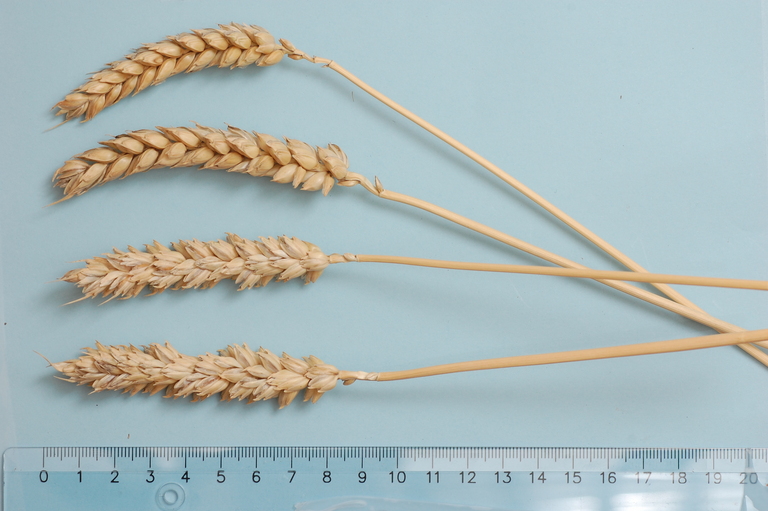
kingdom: Plantae
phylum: Tracheophyta
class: Liliopsida
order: Poales
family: Poaceae
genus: Triticum
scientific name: Triticum aestivum
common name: Common wheat
